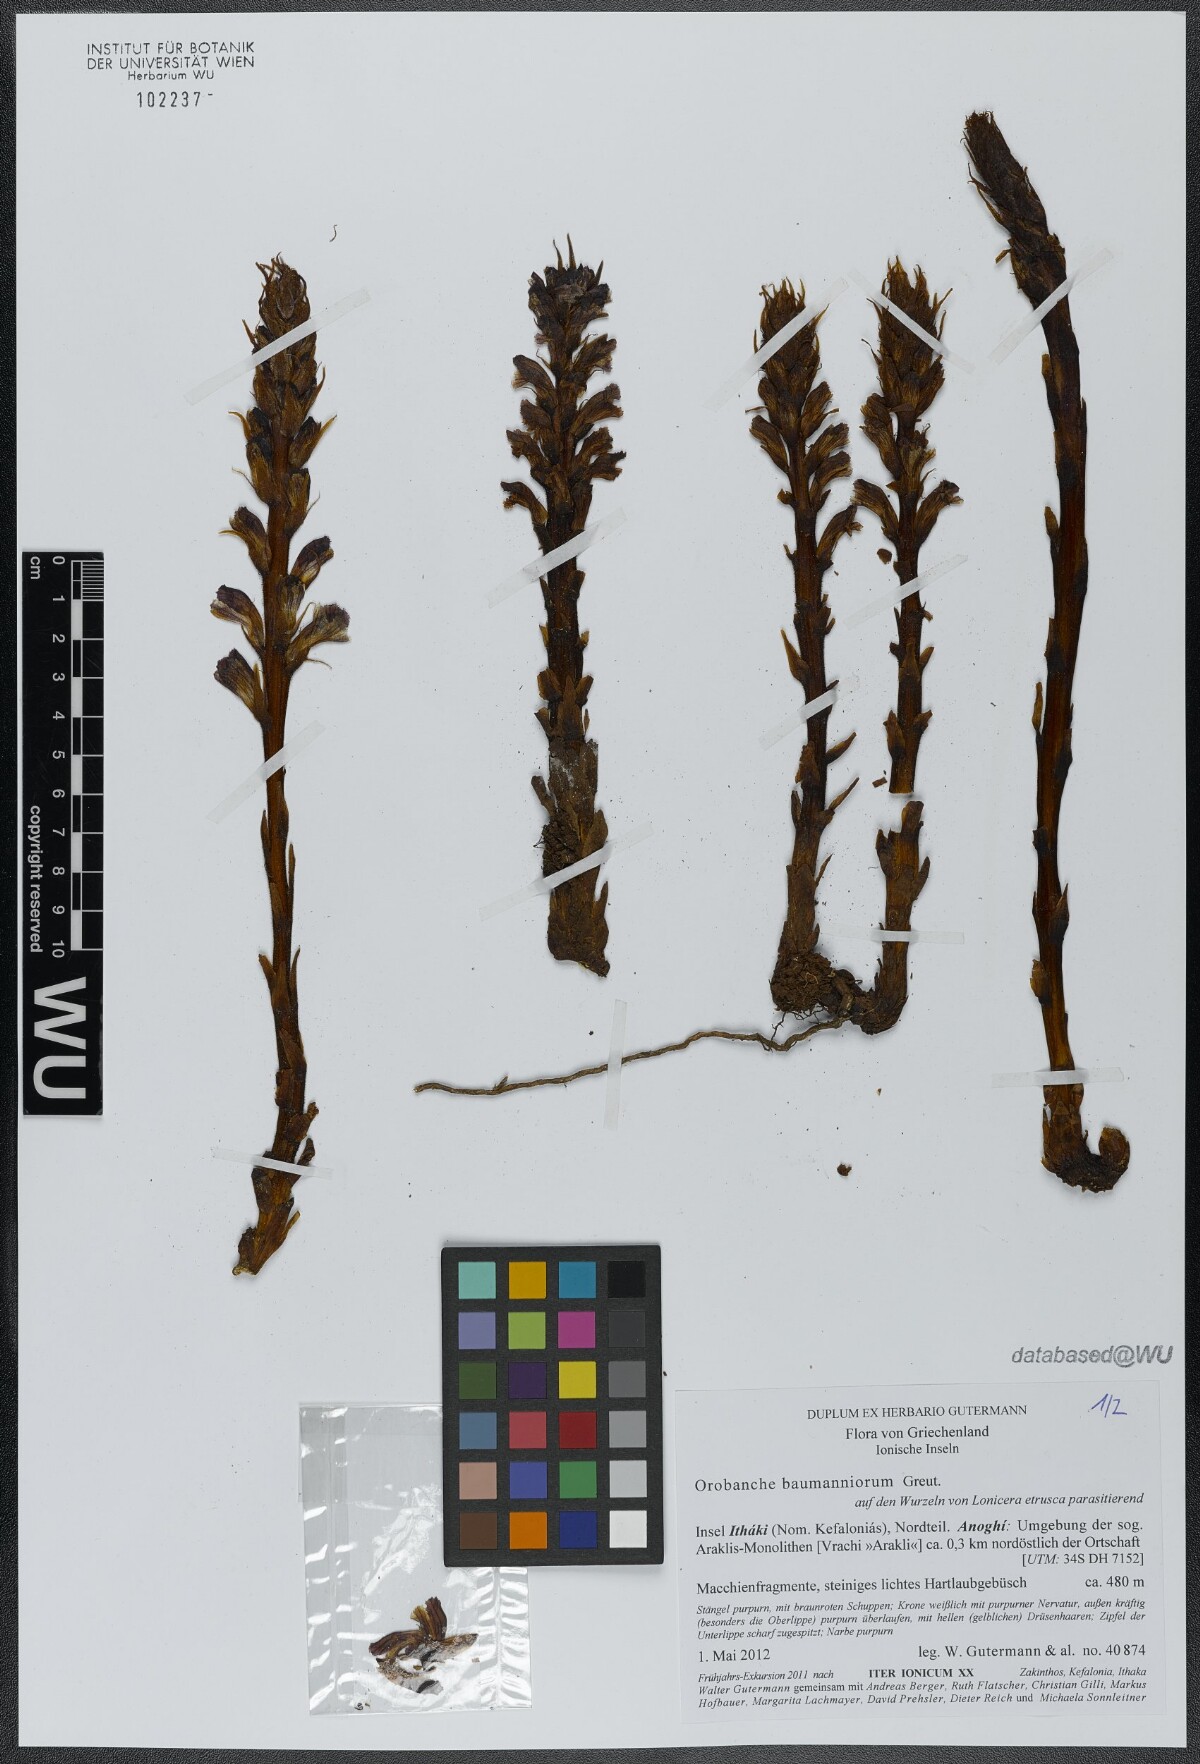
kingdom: Plantae
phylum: Tracheophyta
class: Magnoliopsida
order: Lamiales
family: Orobanchaceae
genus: Orobanche
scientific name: Orobanche baumanniorum
